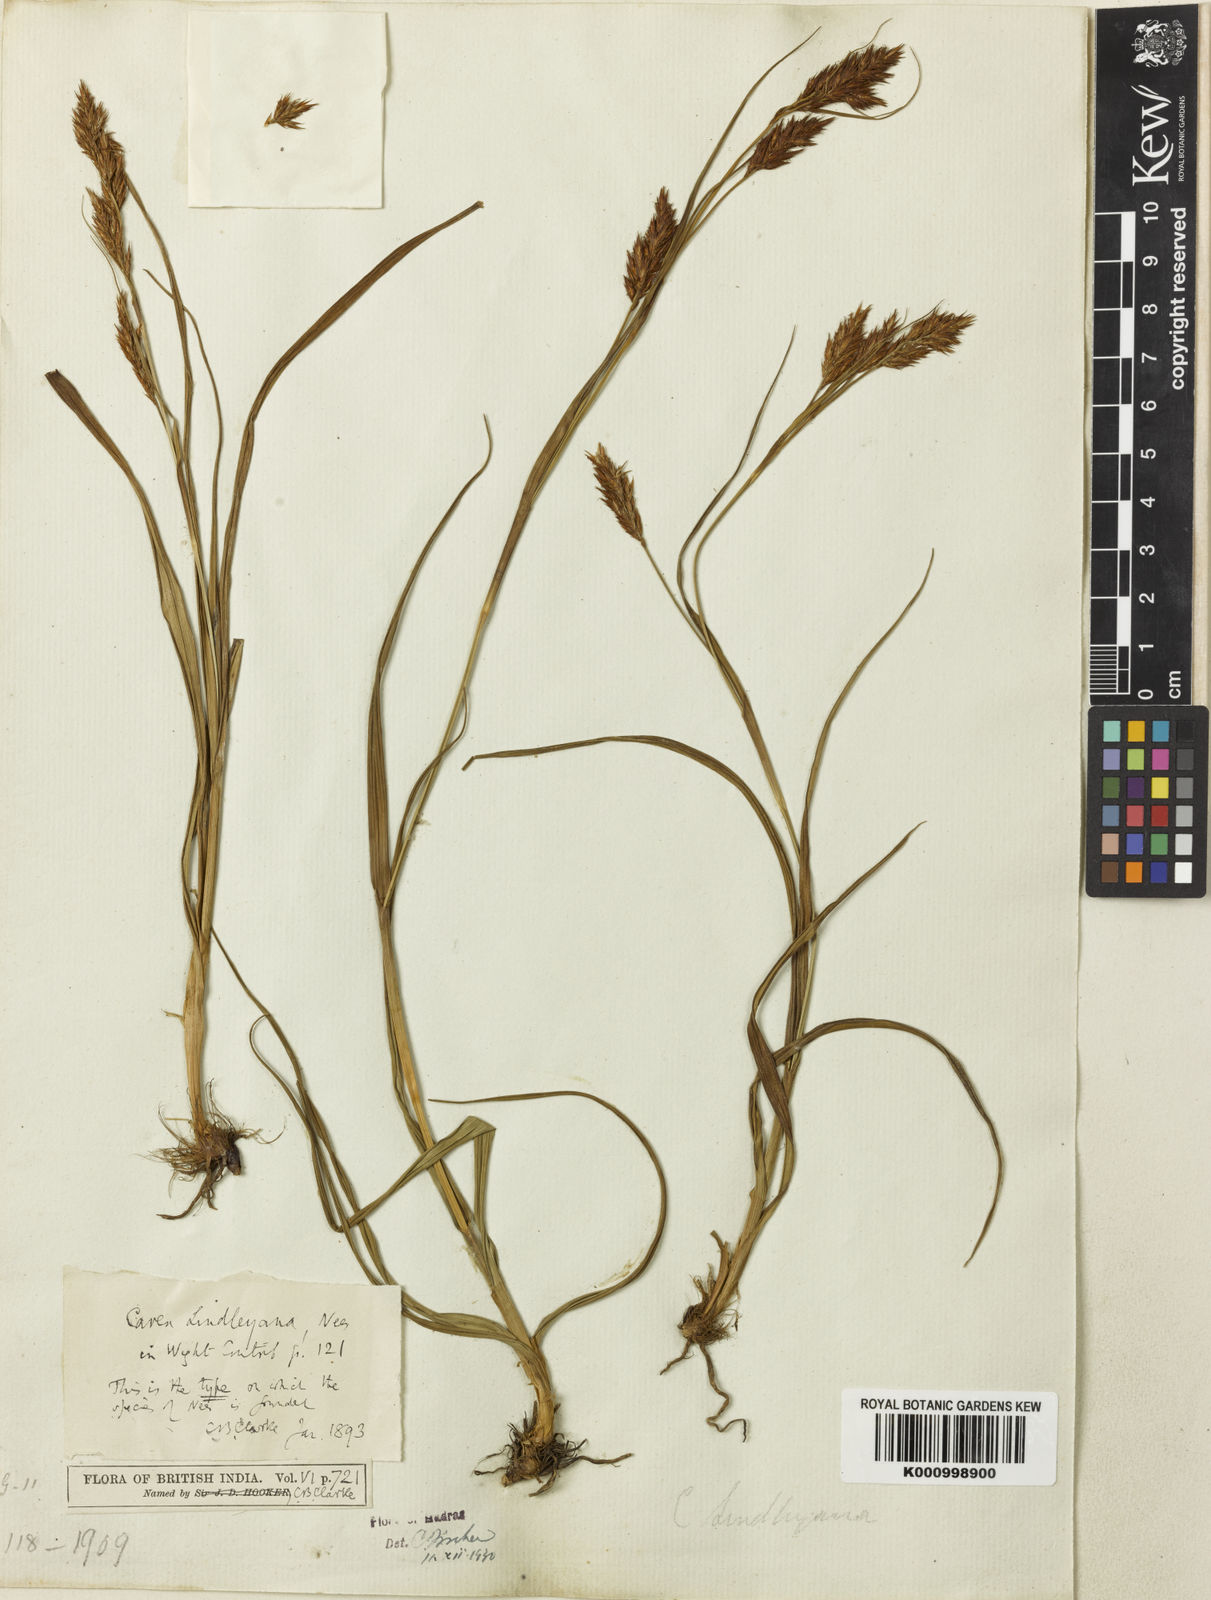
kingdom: Plantae
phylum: Tracheophyta
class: Liliopsida
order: Poales
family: Cyperaceae
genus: Carex
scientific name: Carex lindleyana
